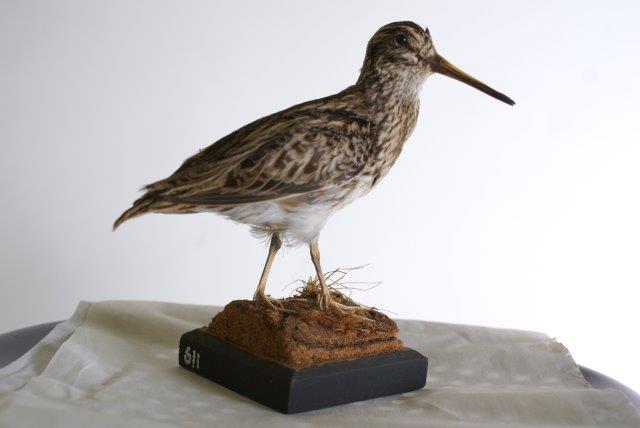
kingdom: Animalia
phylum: Chordata
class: Aves
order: Charadriiformes
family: Scolopacidae
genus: Lymnocryptes
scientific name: Lymnocryptes minimus
